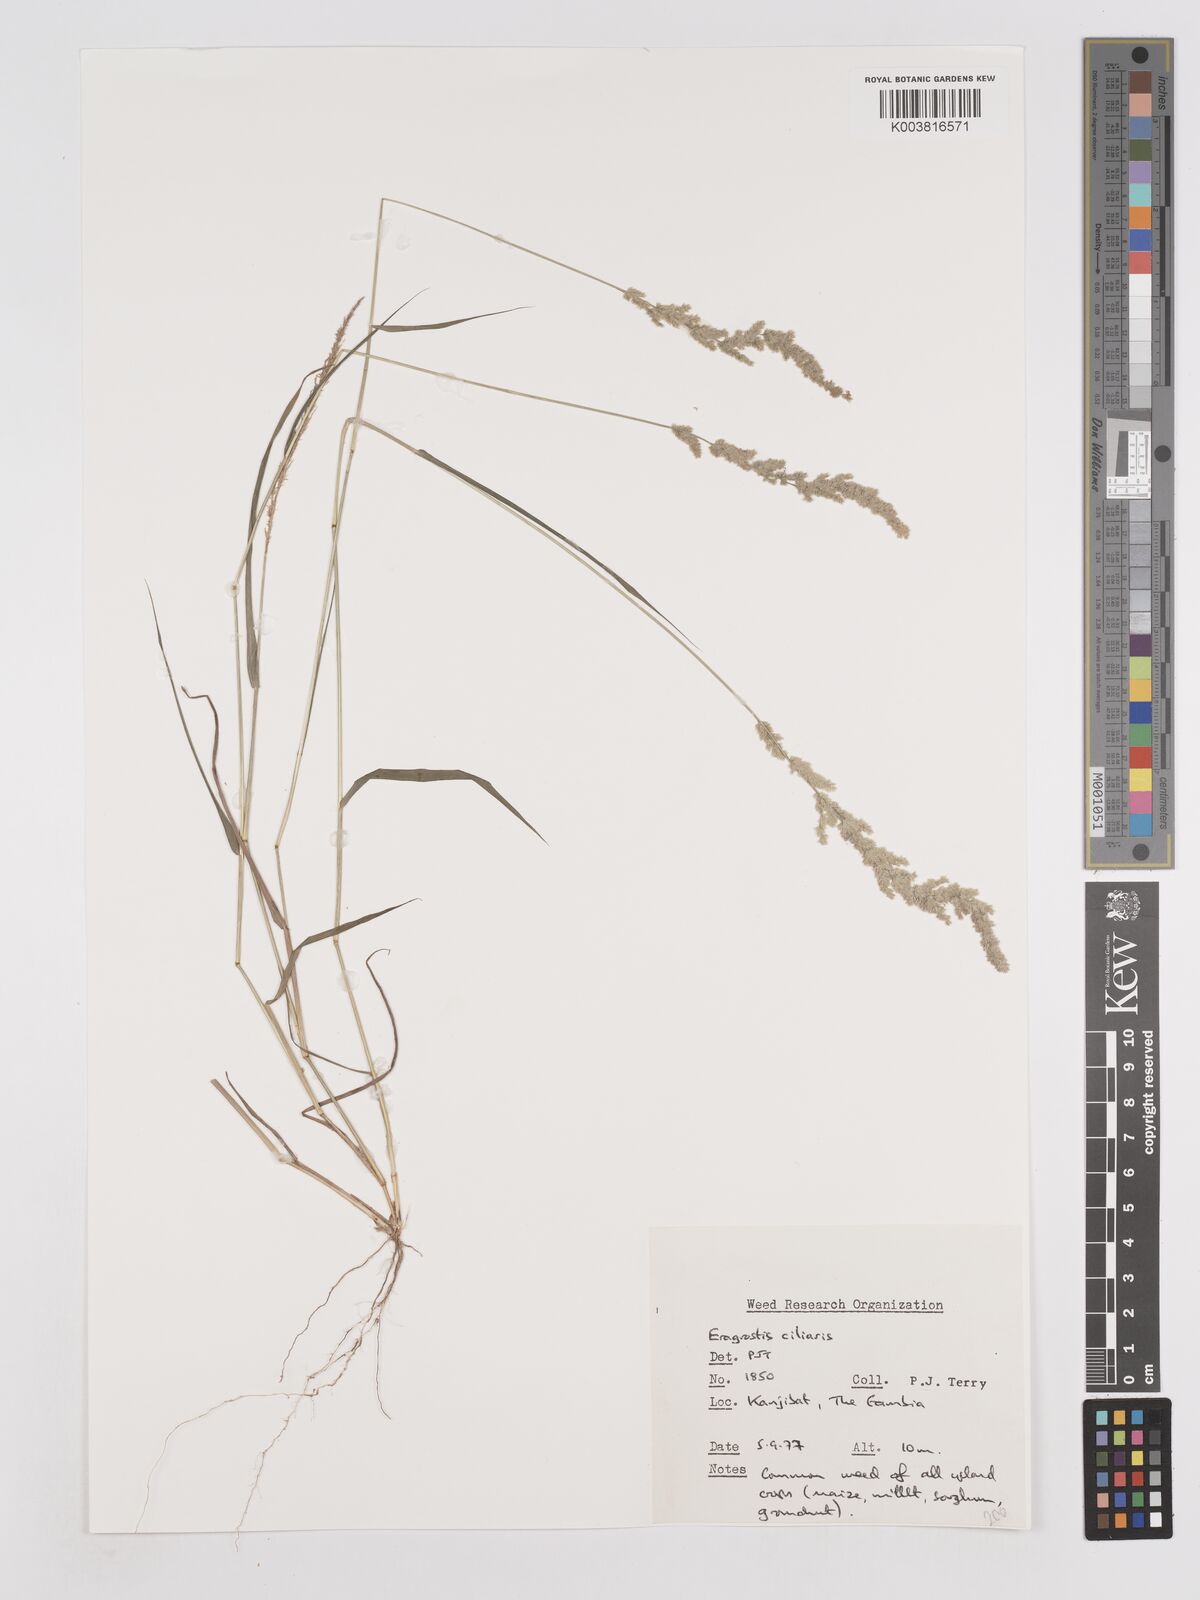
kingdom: Plantae
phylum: Tracheophyta
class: Liliopsida
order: Poales
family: Poaceae
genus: Eragrostis
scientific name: Eragrostis ciliaris
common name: Gophertail lovegrass
